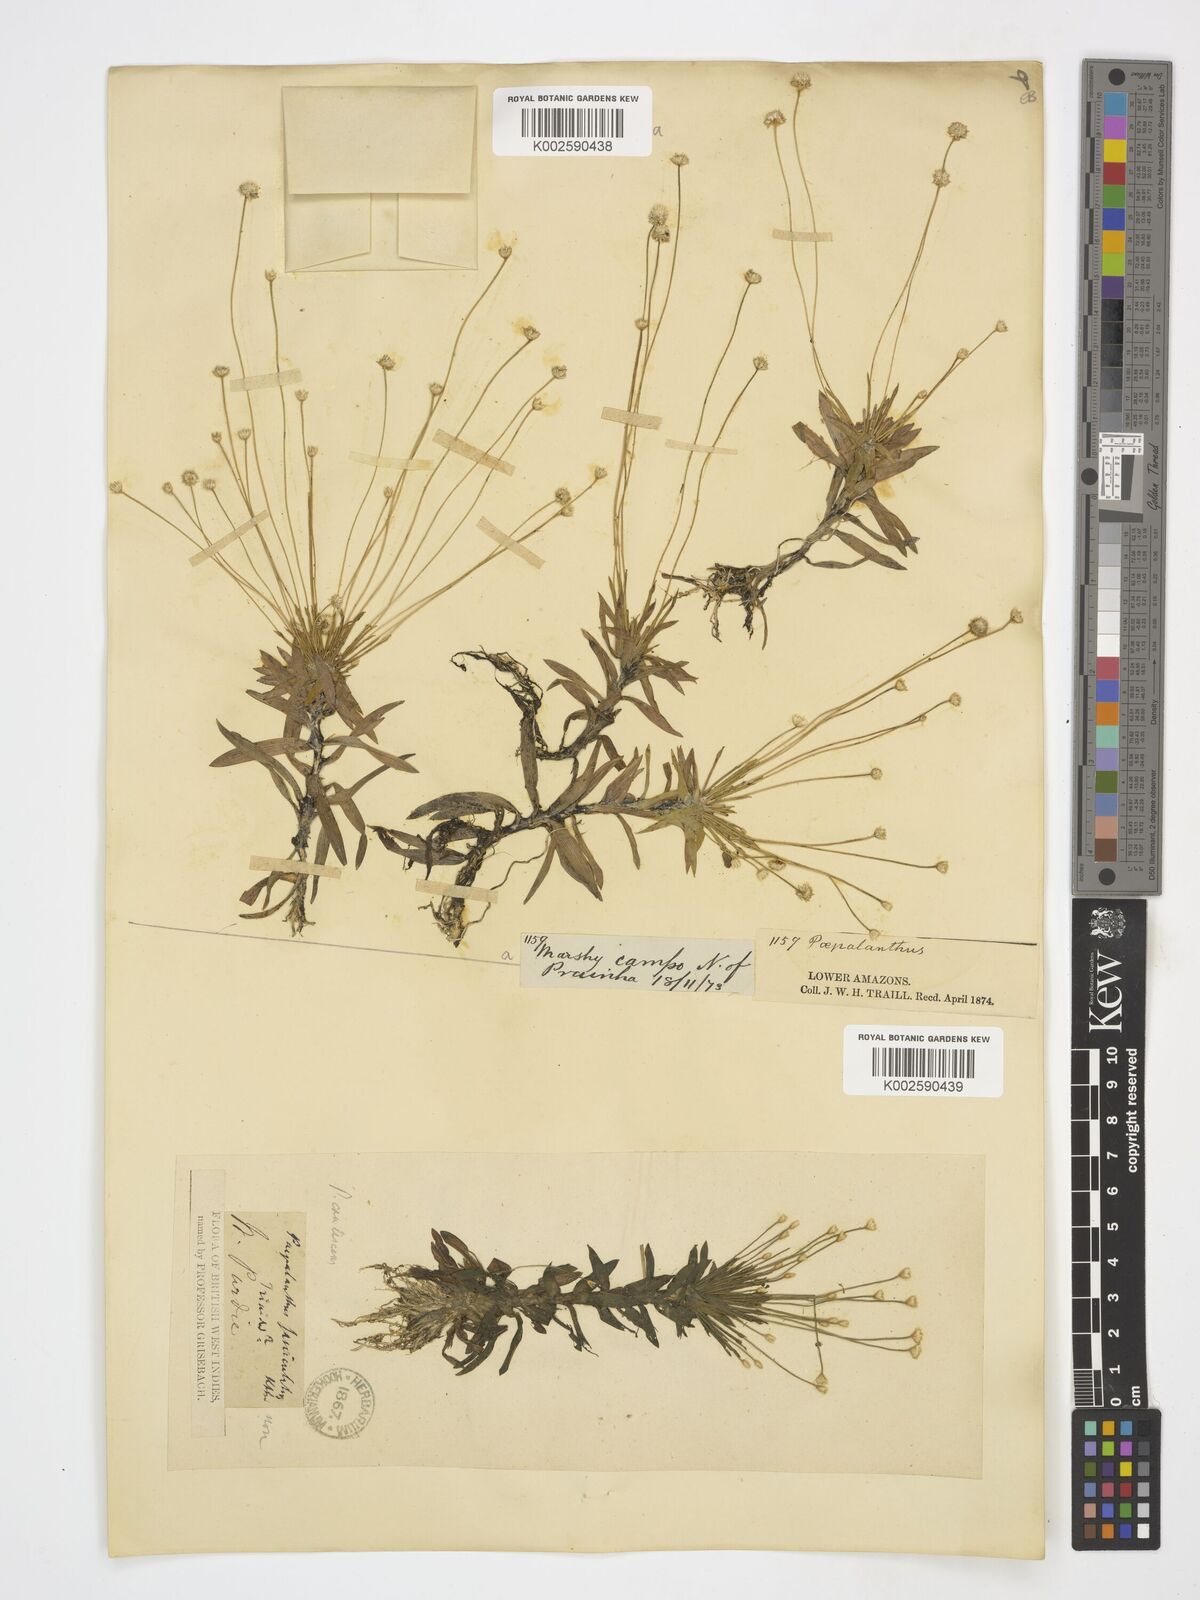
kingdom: Plantae
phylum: Tracheophyta
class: Liliopsida
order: Poales
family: Eriocaulaceae
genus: Paepalanthus
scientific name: Paepalanthus
